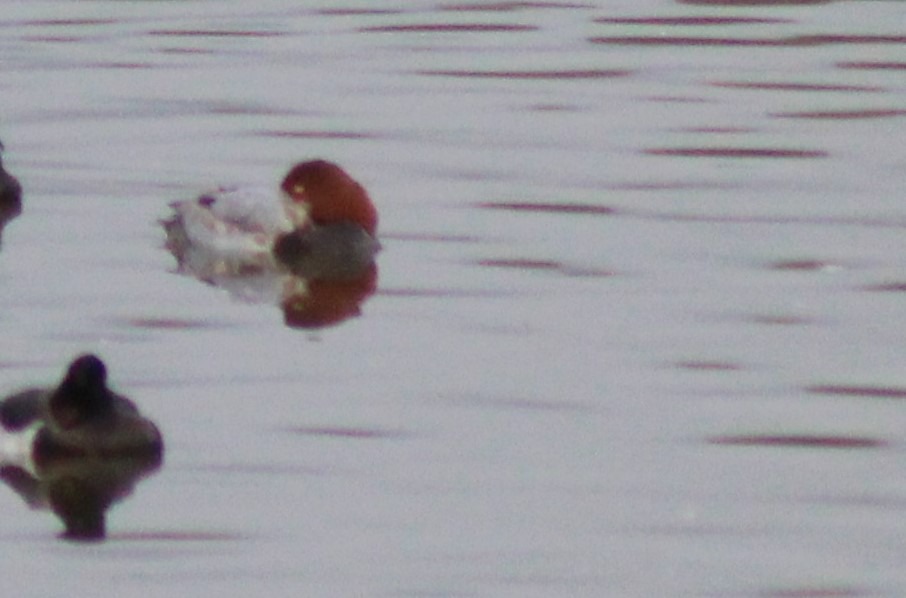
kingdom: Animalia
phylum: Chordata
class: Aves
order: Anseriformes
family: Anatidae
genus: Aythya
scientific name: Aythya ferina
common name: Taffeland
